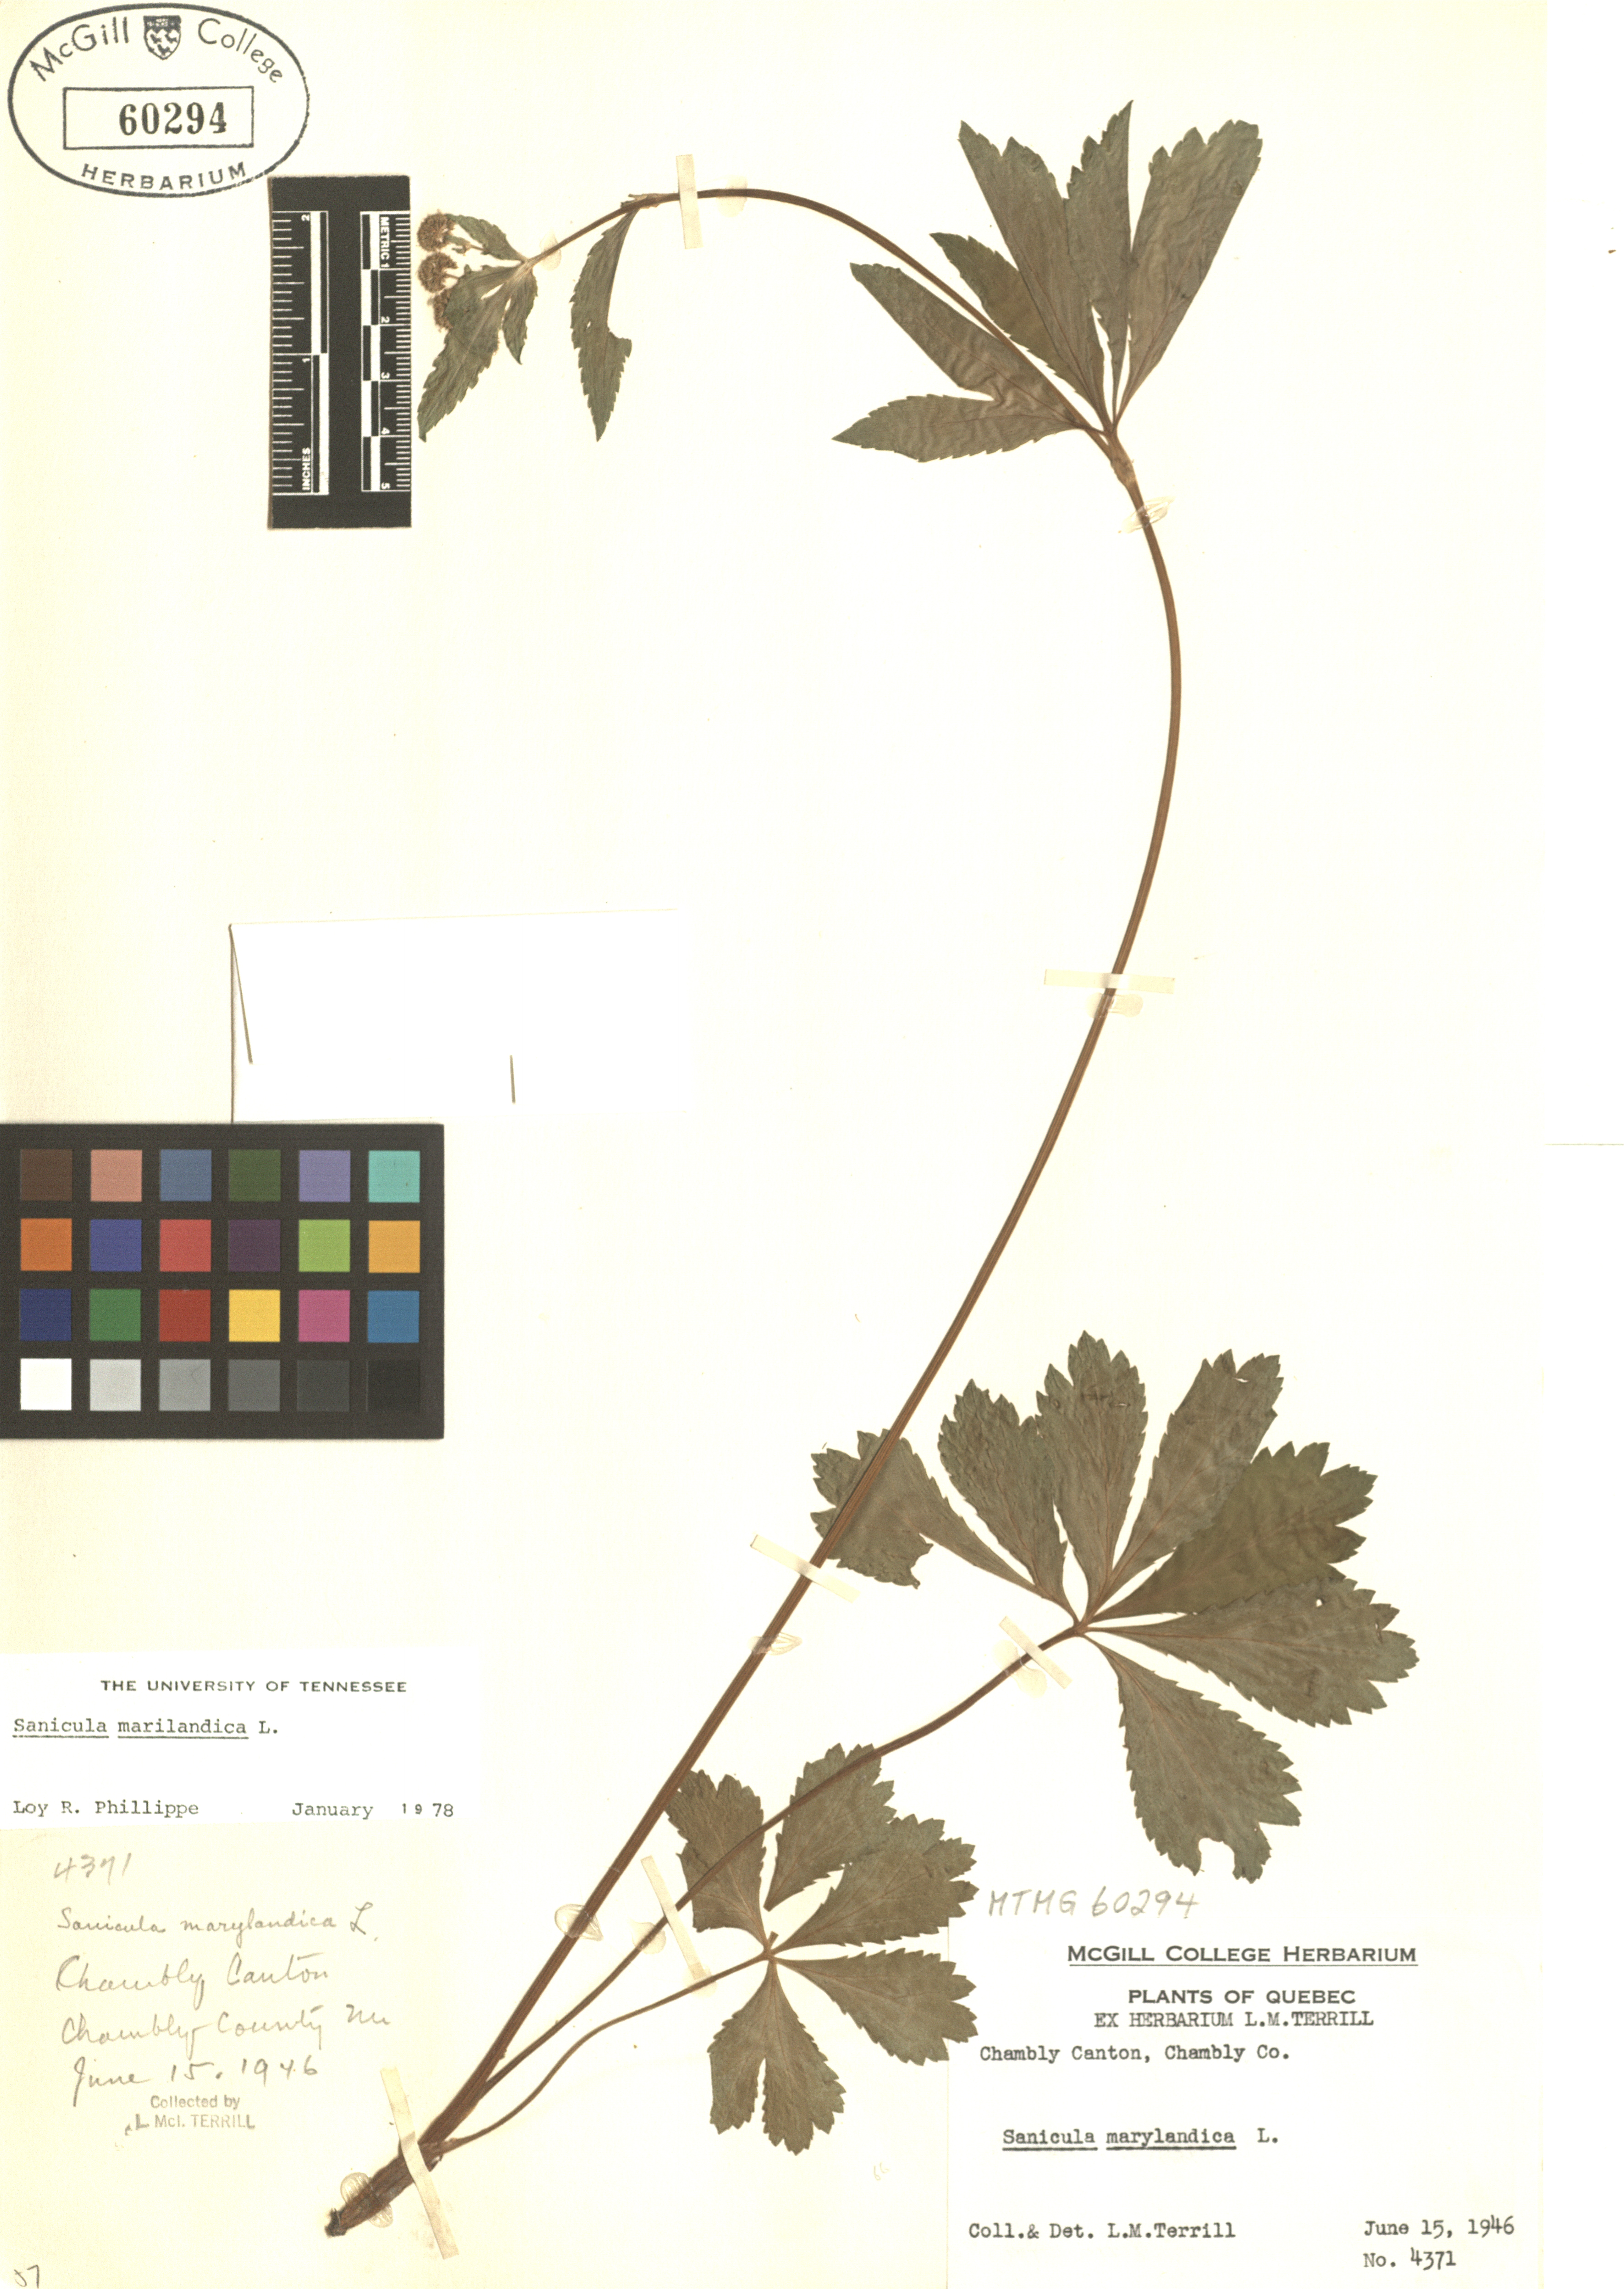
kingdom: Plantae
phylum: Tracheophyta
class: Magnoliopsida
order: Apiales
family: Apiaceae
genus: Sanicula
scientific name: Sanicula marilandica
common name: Black snakeroot
